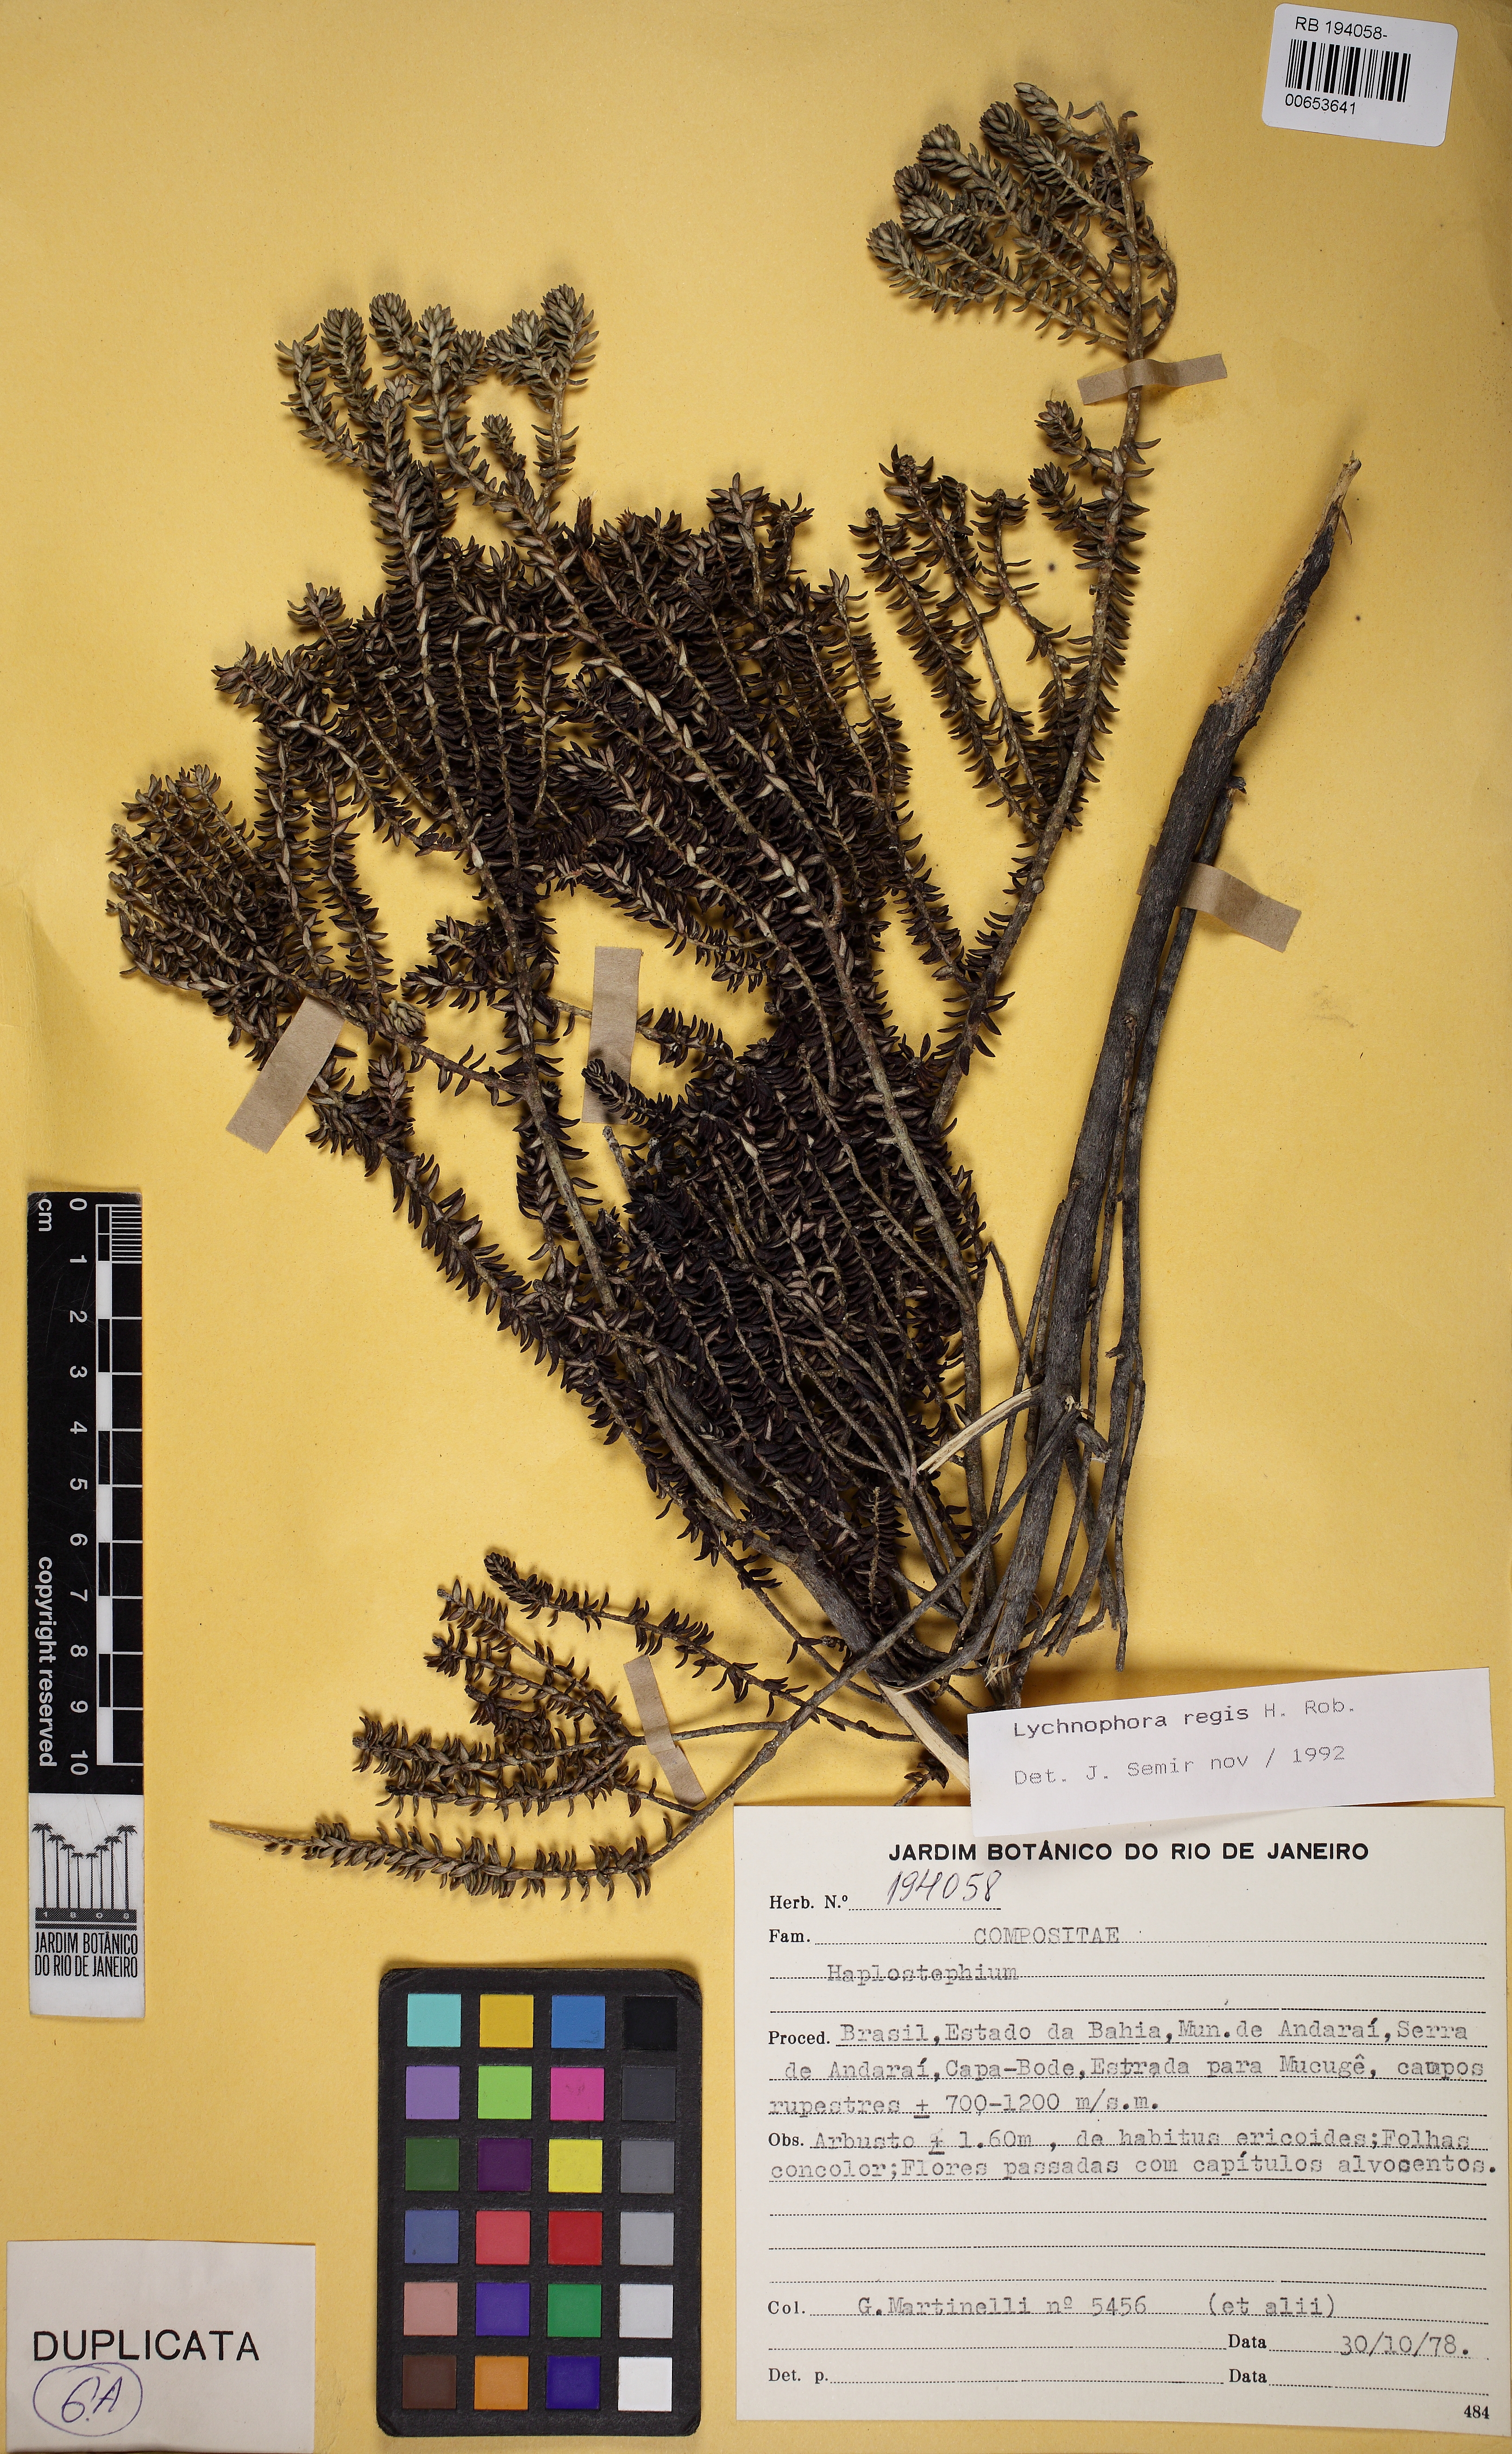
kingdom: Plantae
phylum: Tracheophyta
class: Magnoliopsida
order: Asterales
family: Asteraceae
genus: Lychnophorella
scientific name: Lychnophorella regis
